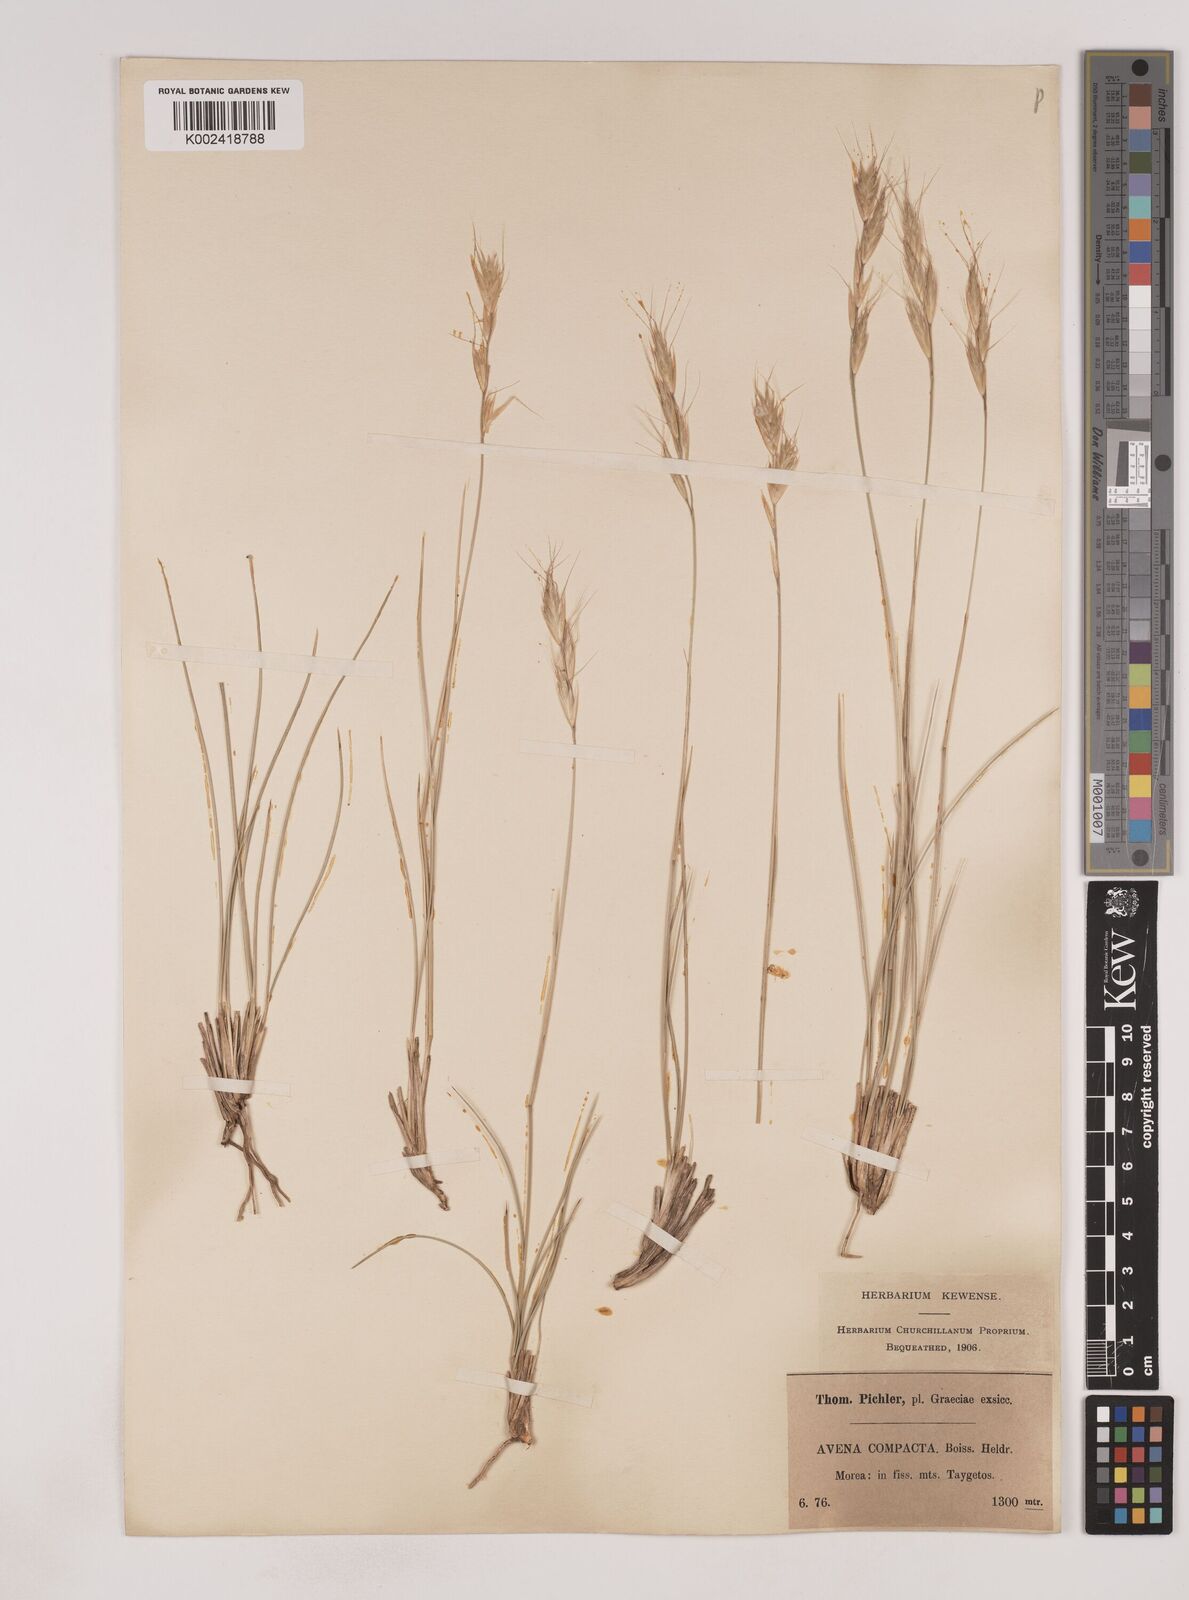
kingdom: Plantae
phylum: Tracheophyta
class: Liliopsida
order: Poales
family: Poaceae
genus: Danthoniastrum
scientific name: Danthoniastrum compactum
